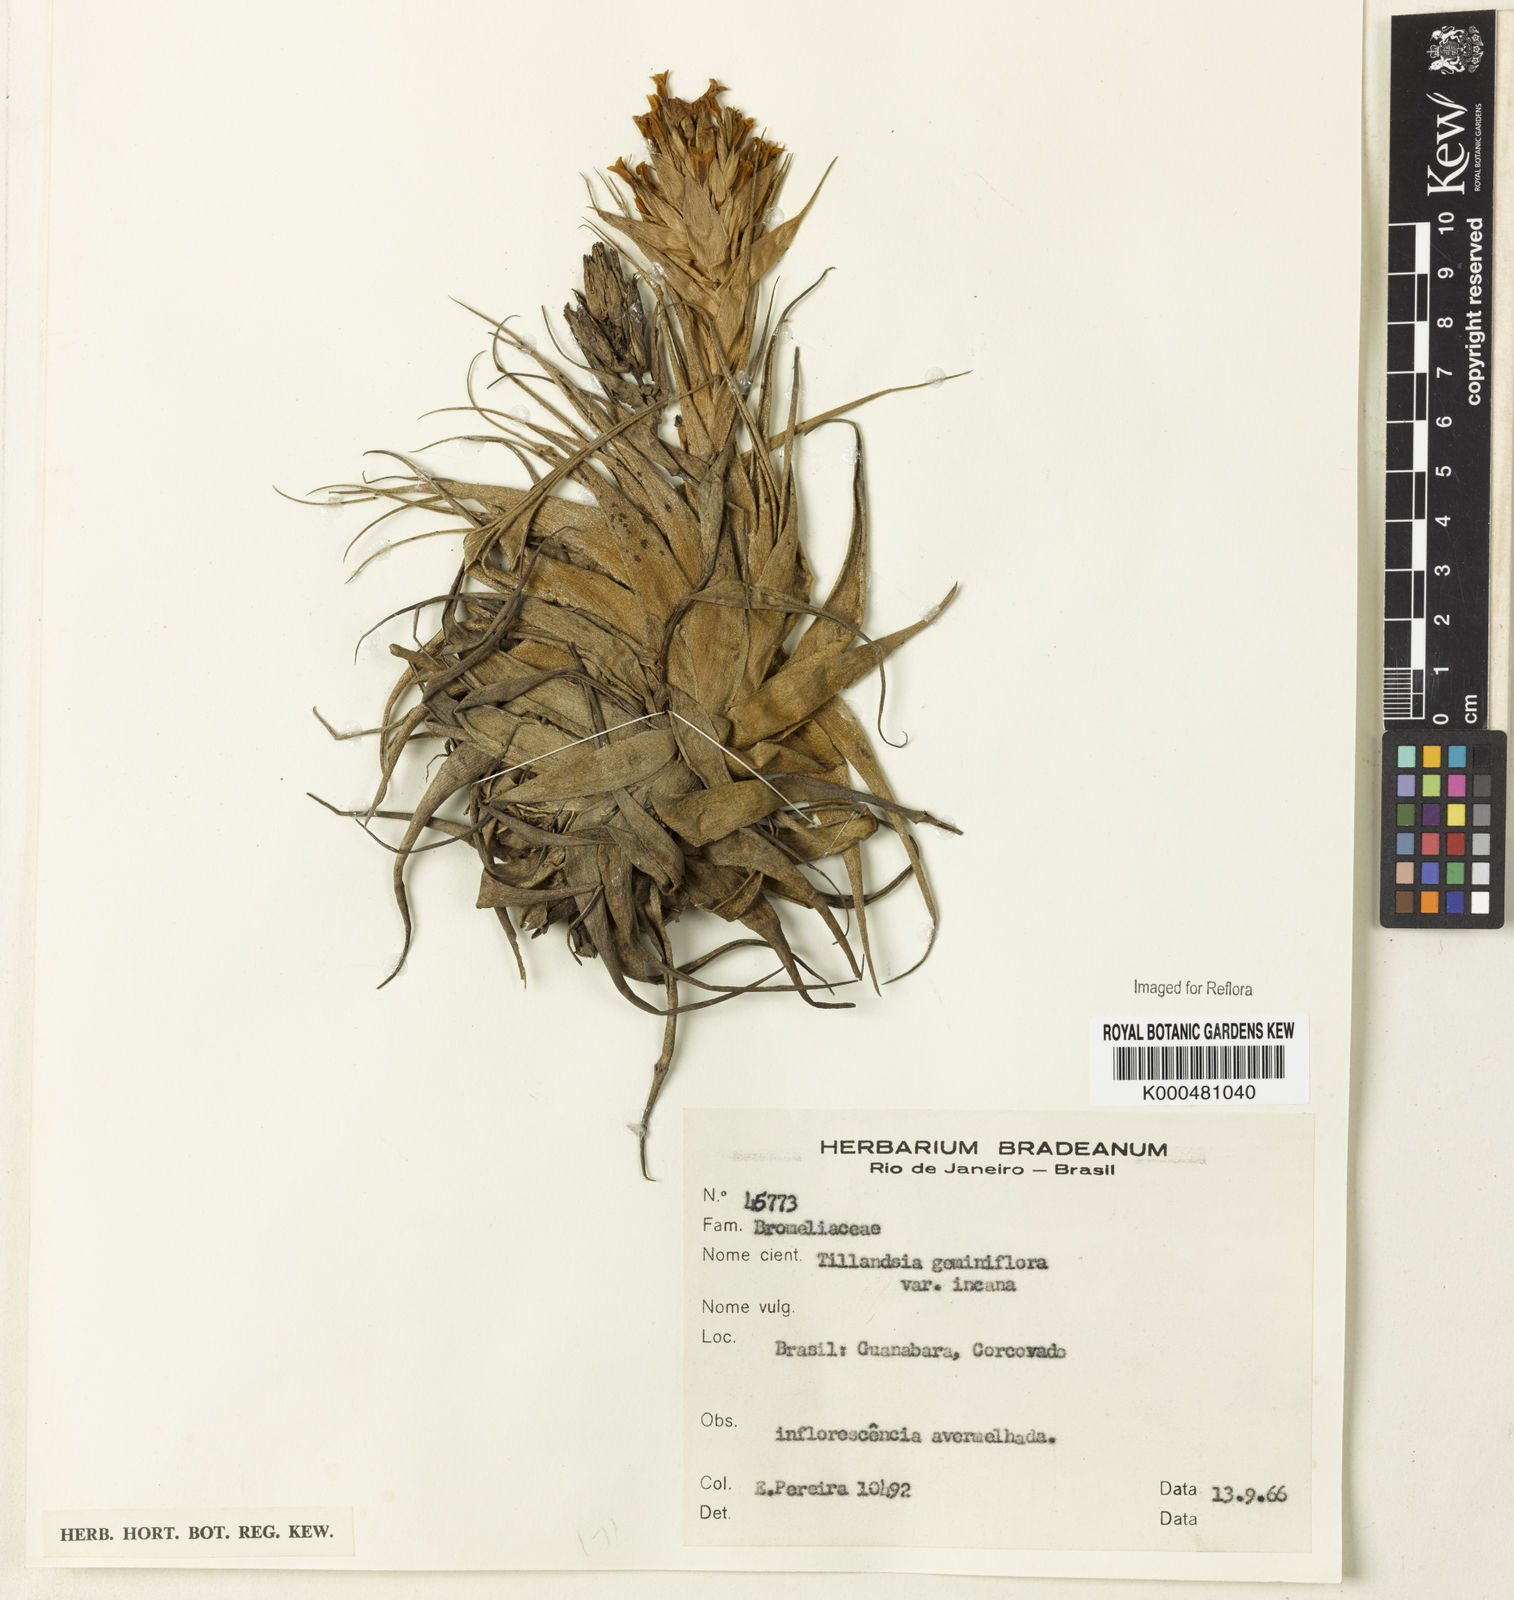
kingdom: Plantae
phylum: Tracheophyta
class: Liliopsida
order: Poales
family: Bromeliaceae
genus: Tillandsia
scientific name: Tillandsia geminiflora
